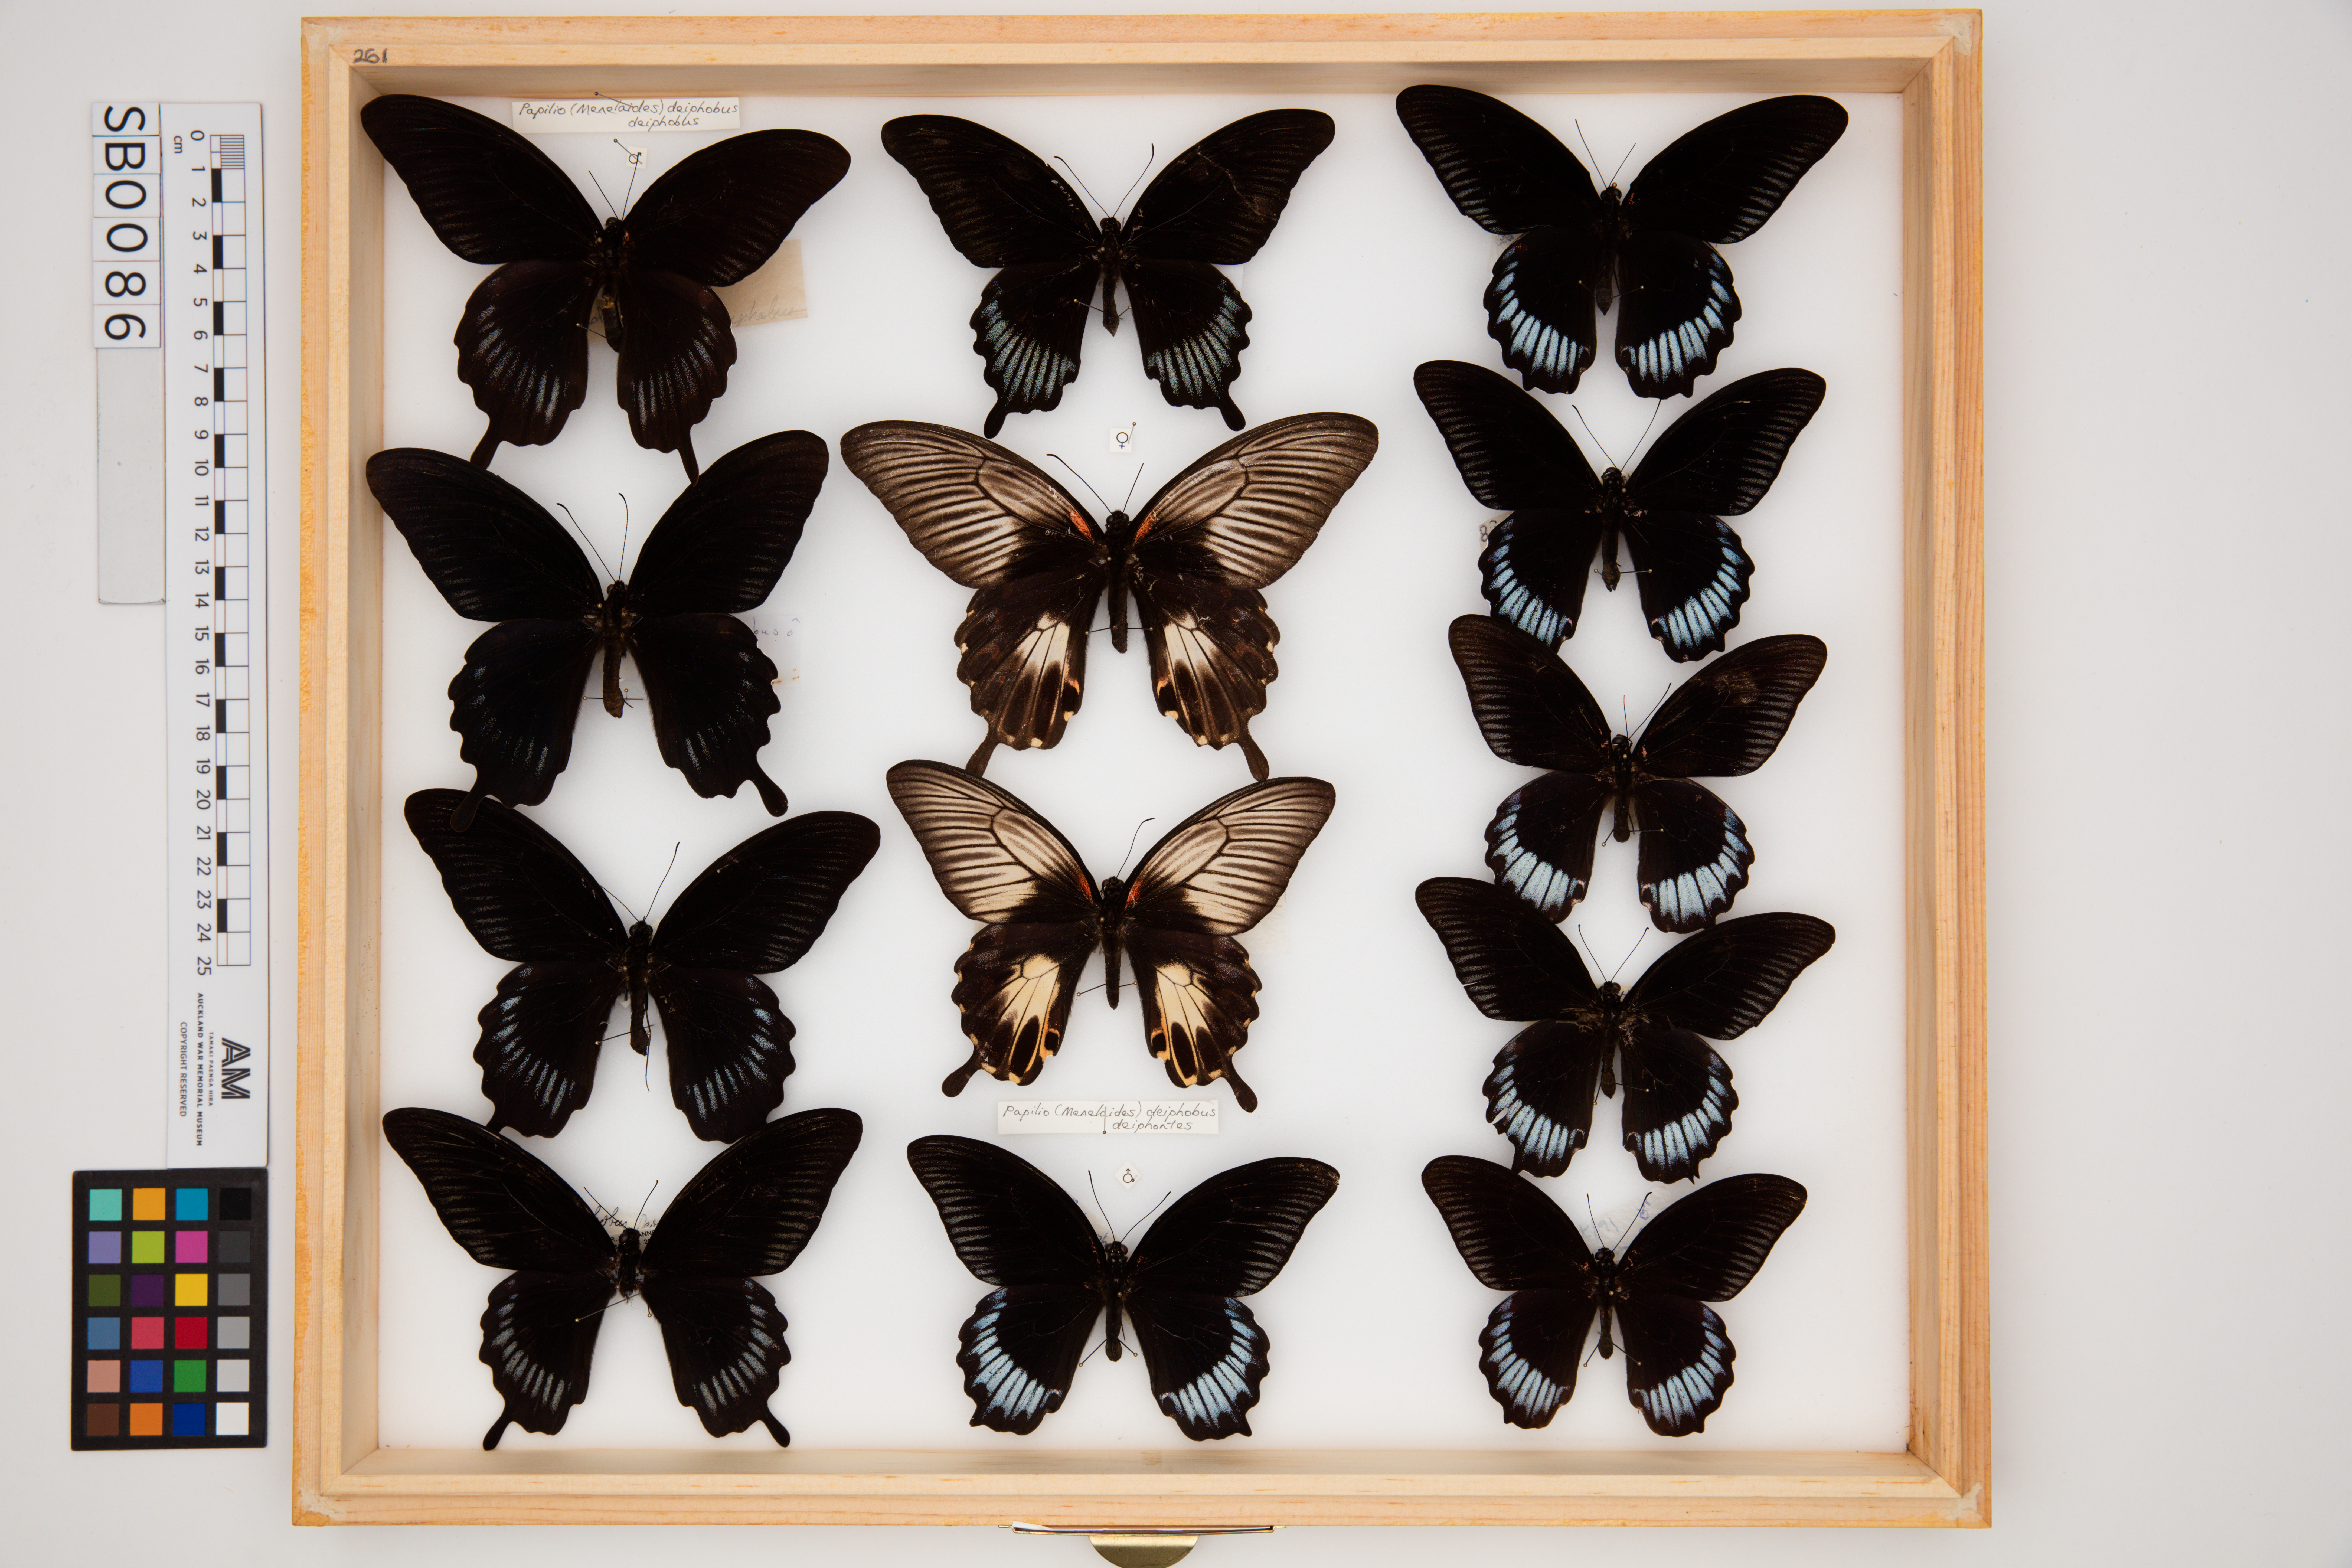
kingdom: Animalia
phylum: Arthropoda
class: Insecta
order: Lepidoptera
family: Papilionidae
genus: Papilio
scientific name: Papilio deiphobus
